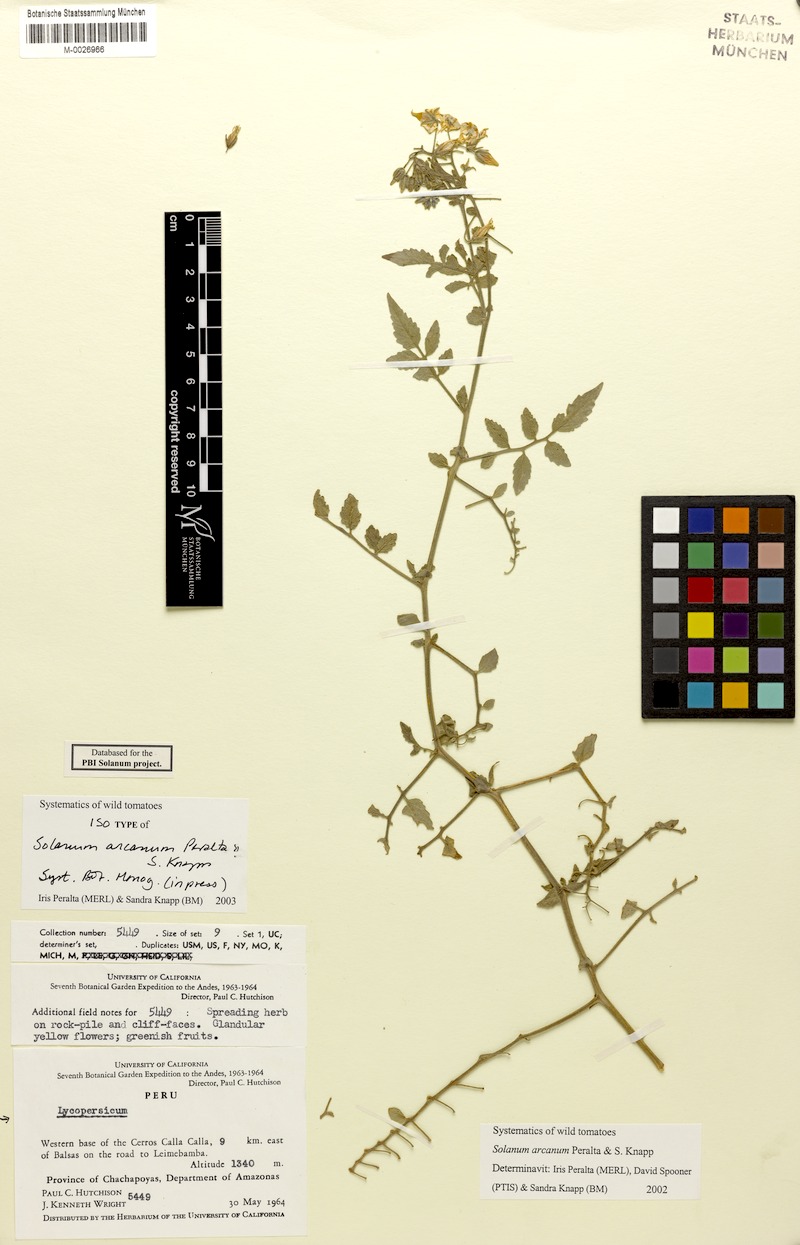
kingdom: Plantae
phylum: Tracheophyta
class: Magnoliopsida
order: Solanales
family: Solanaceae
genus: Solanum
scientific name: Solanum arcanum
